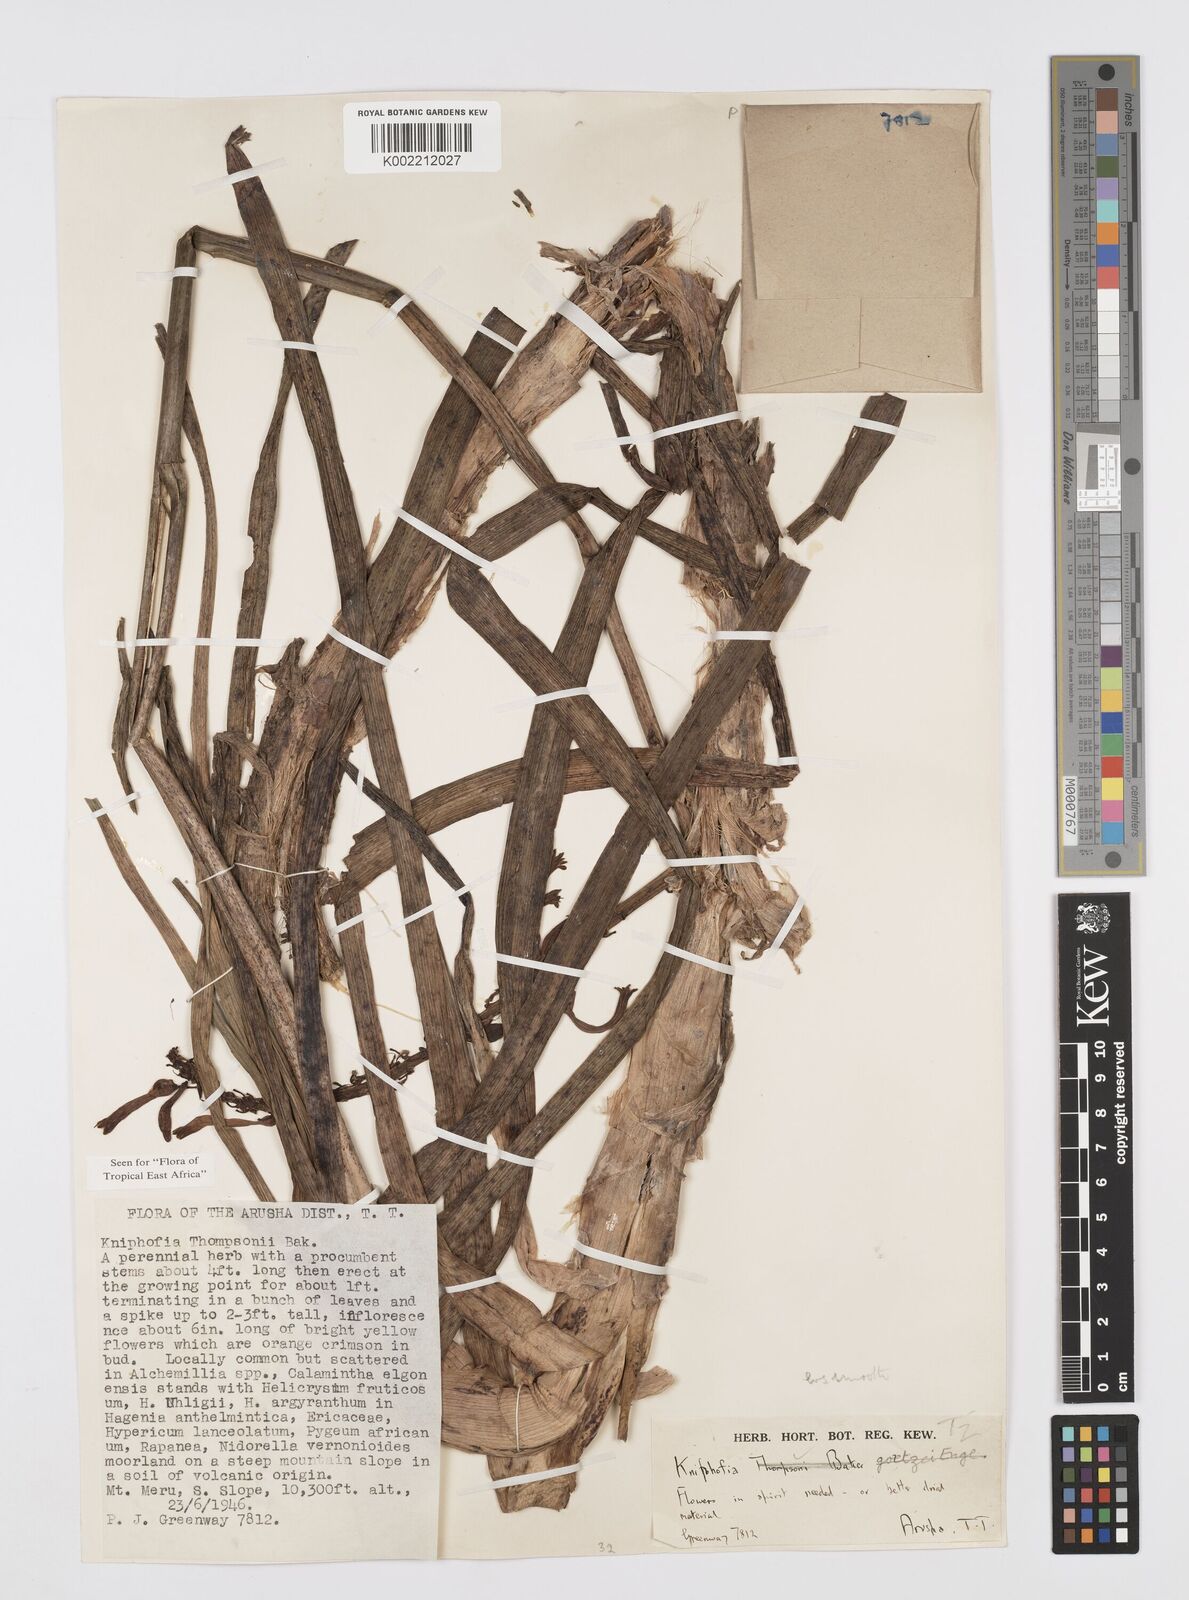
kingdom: Plantae
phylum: Tracheophyta
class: Liliopsida
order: Asparagales
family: Asphodelaceae
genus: Kniphofia
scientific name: Kniphofia thomsonii
